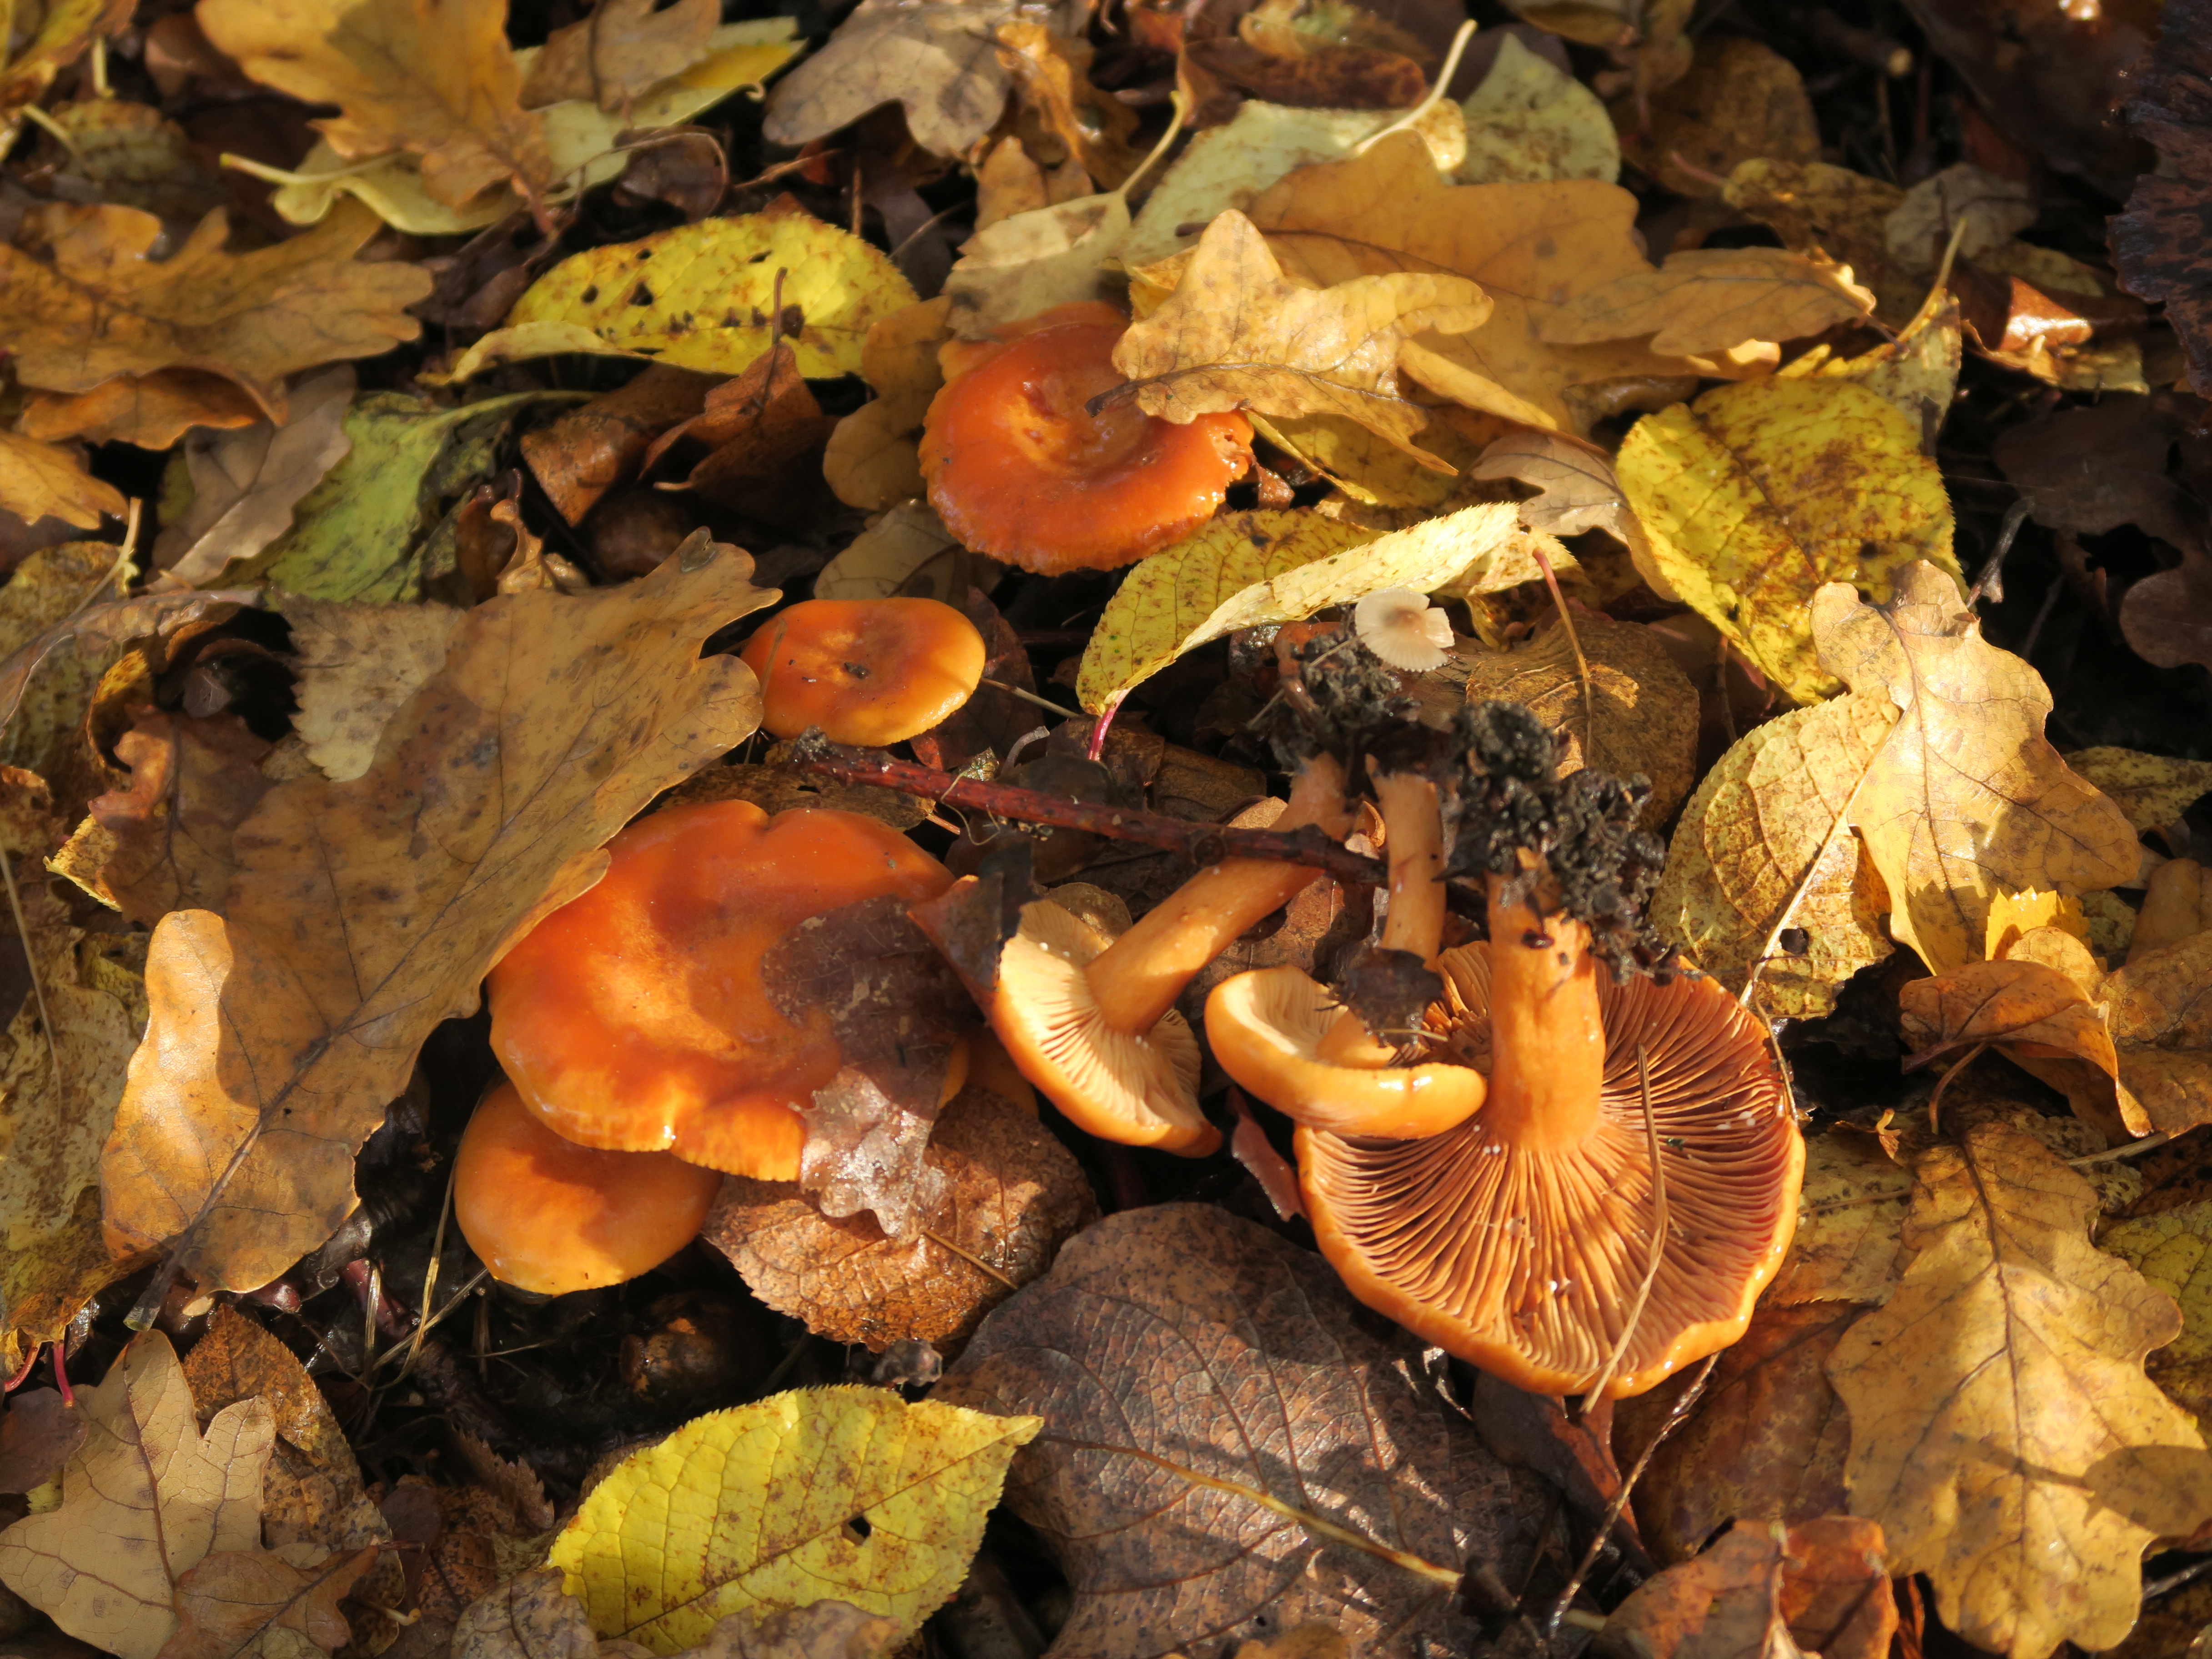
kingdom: Fungi
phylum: Basidiomycota
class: Agaricomycetes
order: Russulales
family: Russulaceae
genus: Lactarius
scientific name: Lactarius aurantiacus
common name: Orange milkcap
